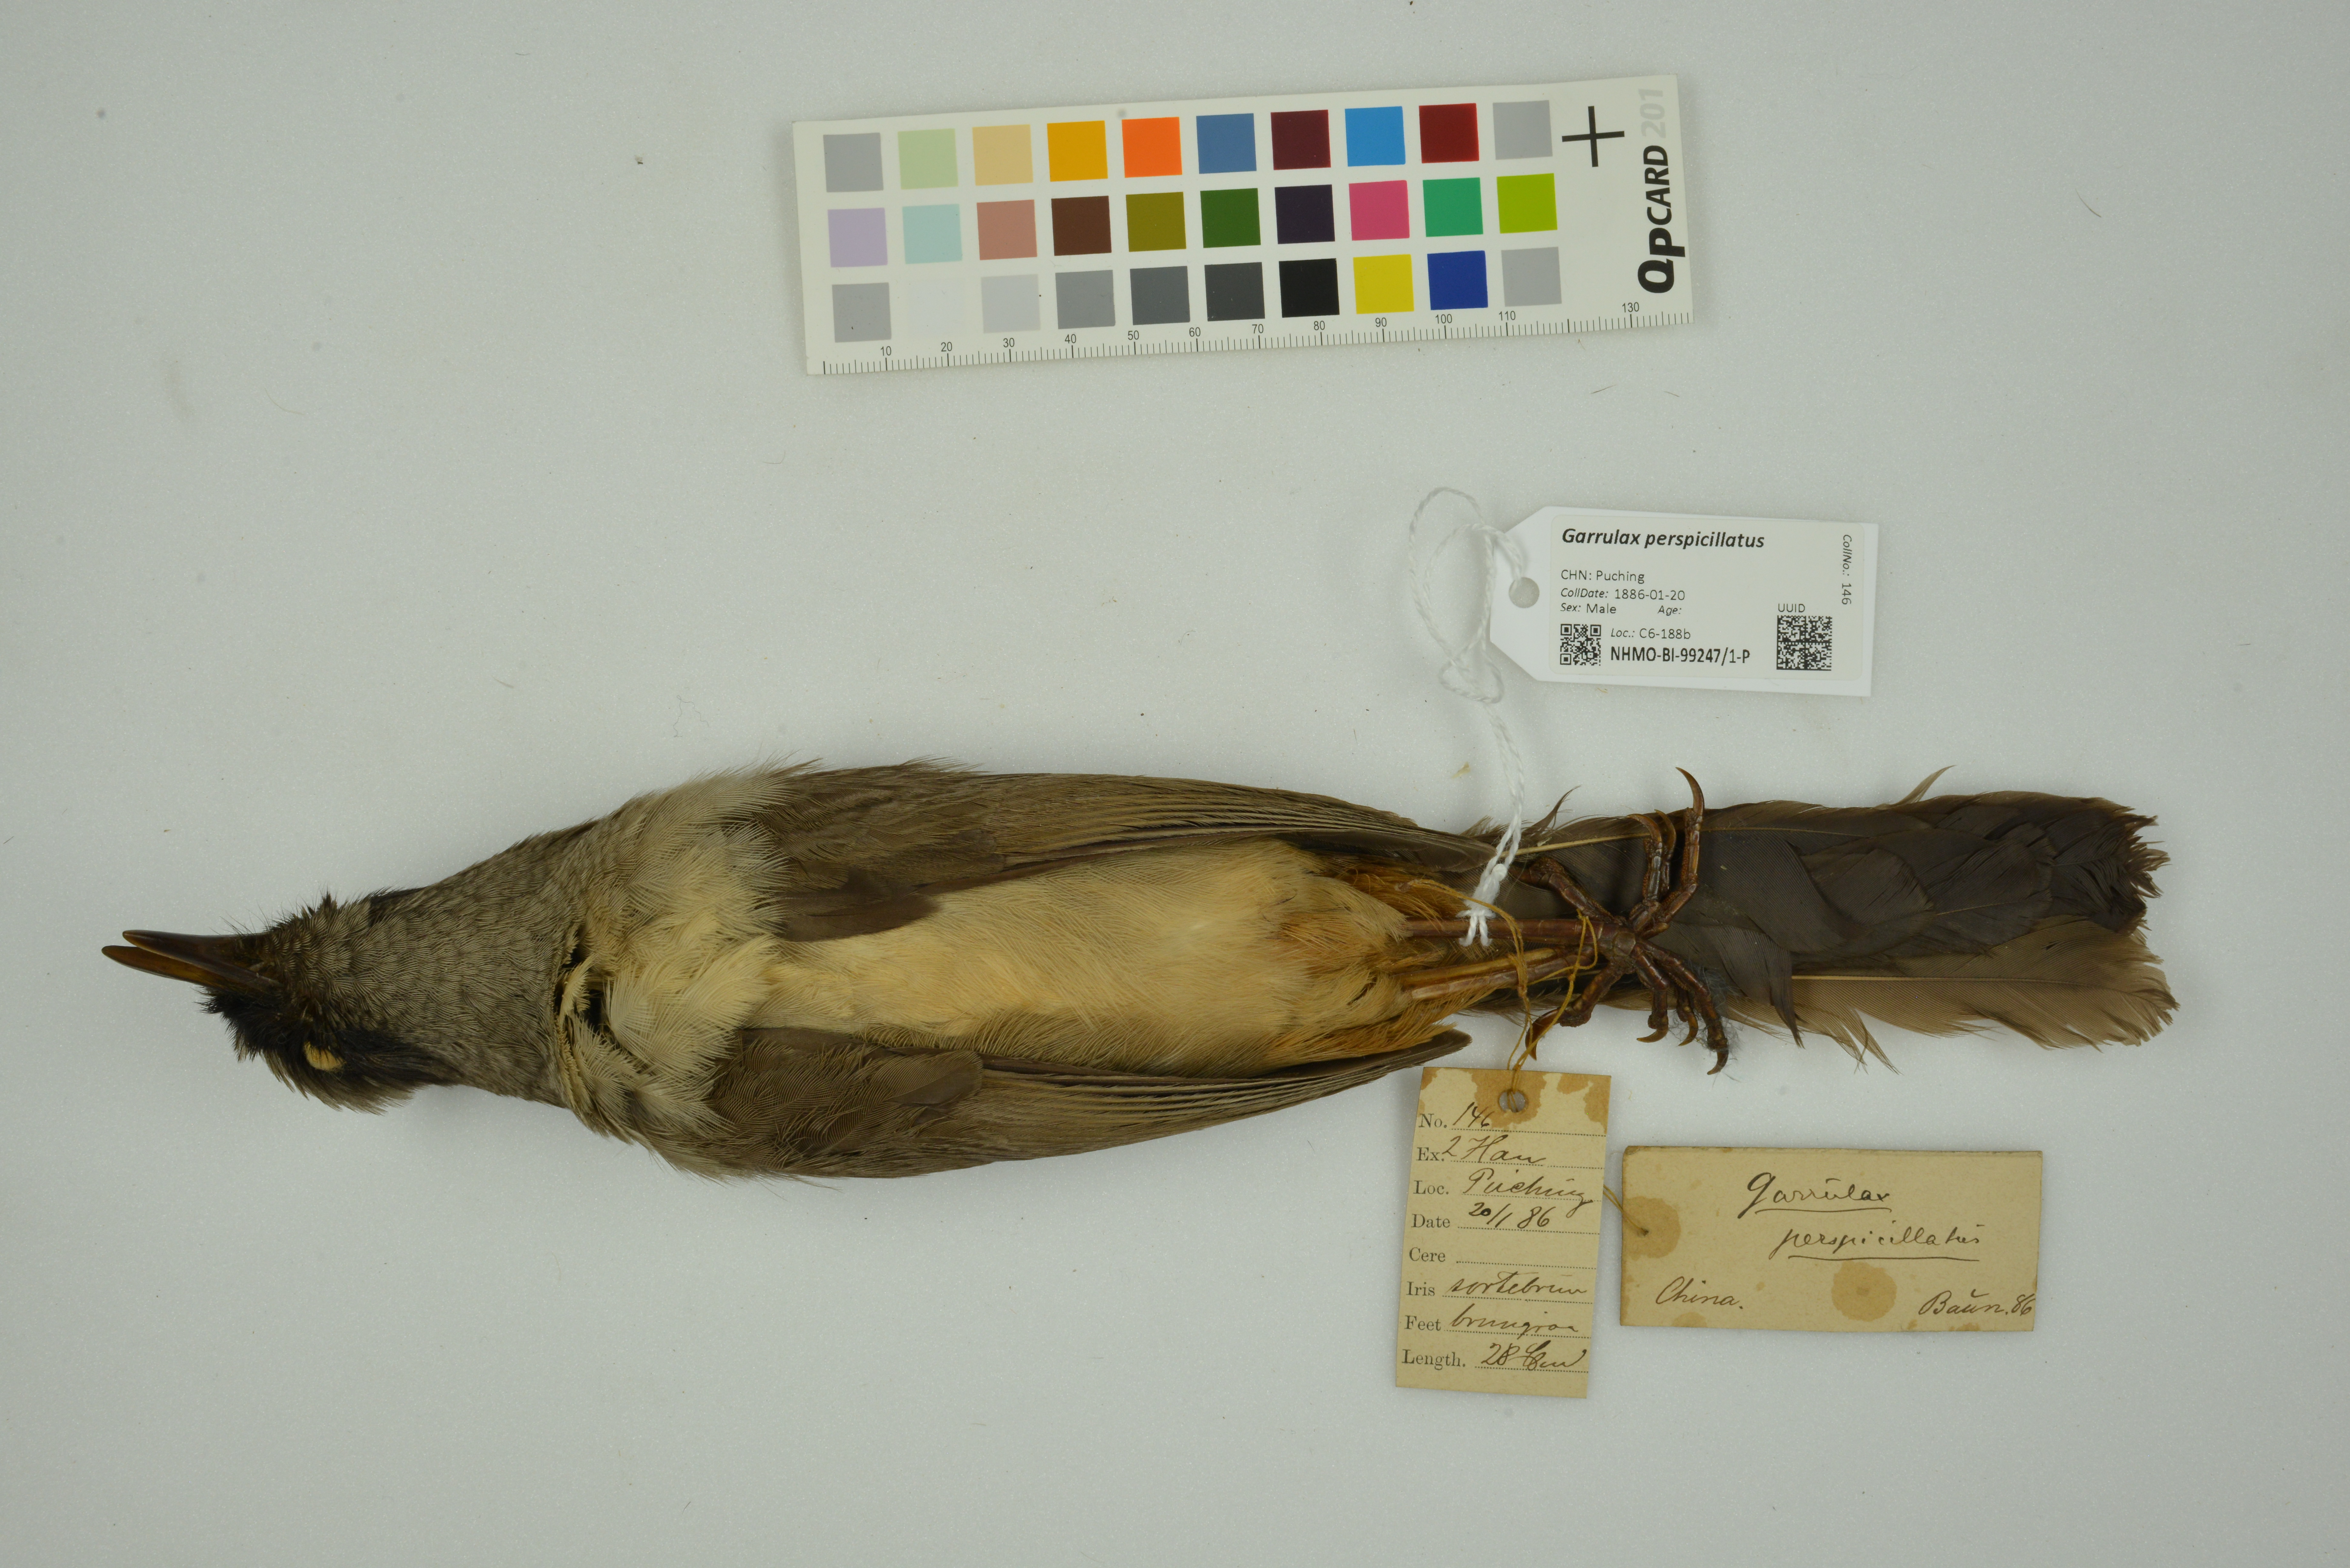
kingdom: Animalia
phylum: Chordata
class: Aves
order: Passeriformes
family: Leiothrichidae
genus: Garrulax
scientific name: Garrulax perspicillatus
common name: Masked laughingthrush
